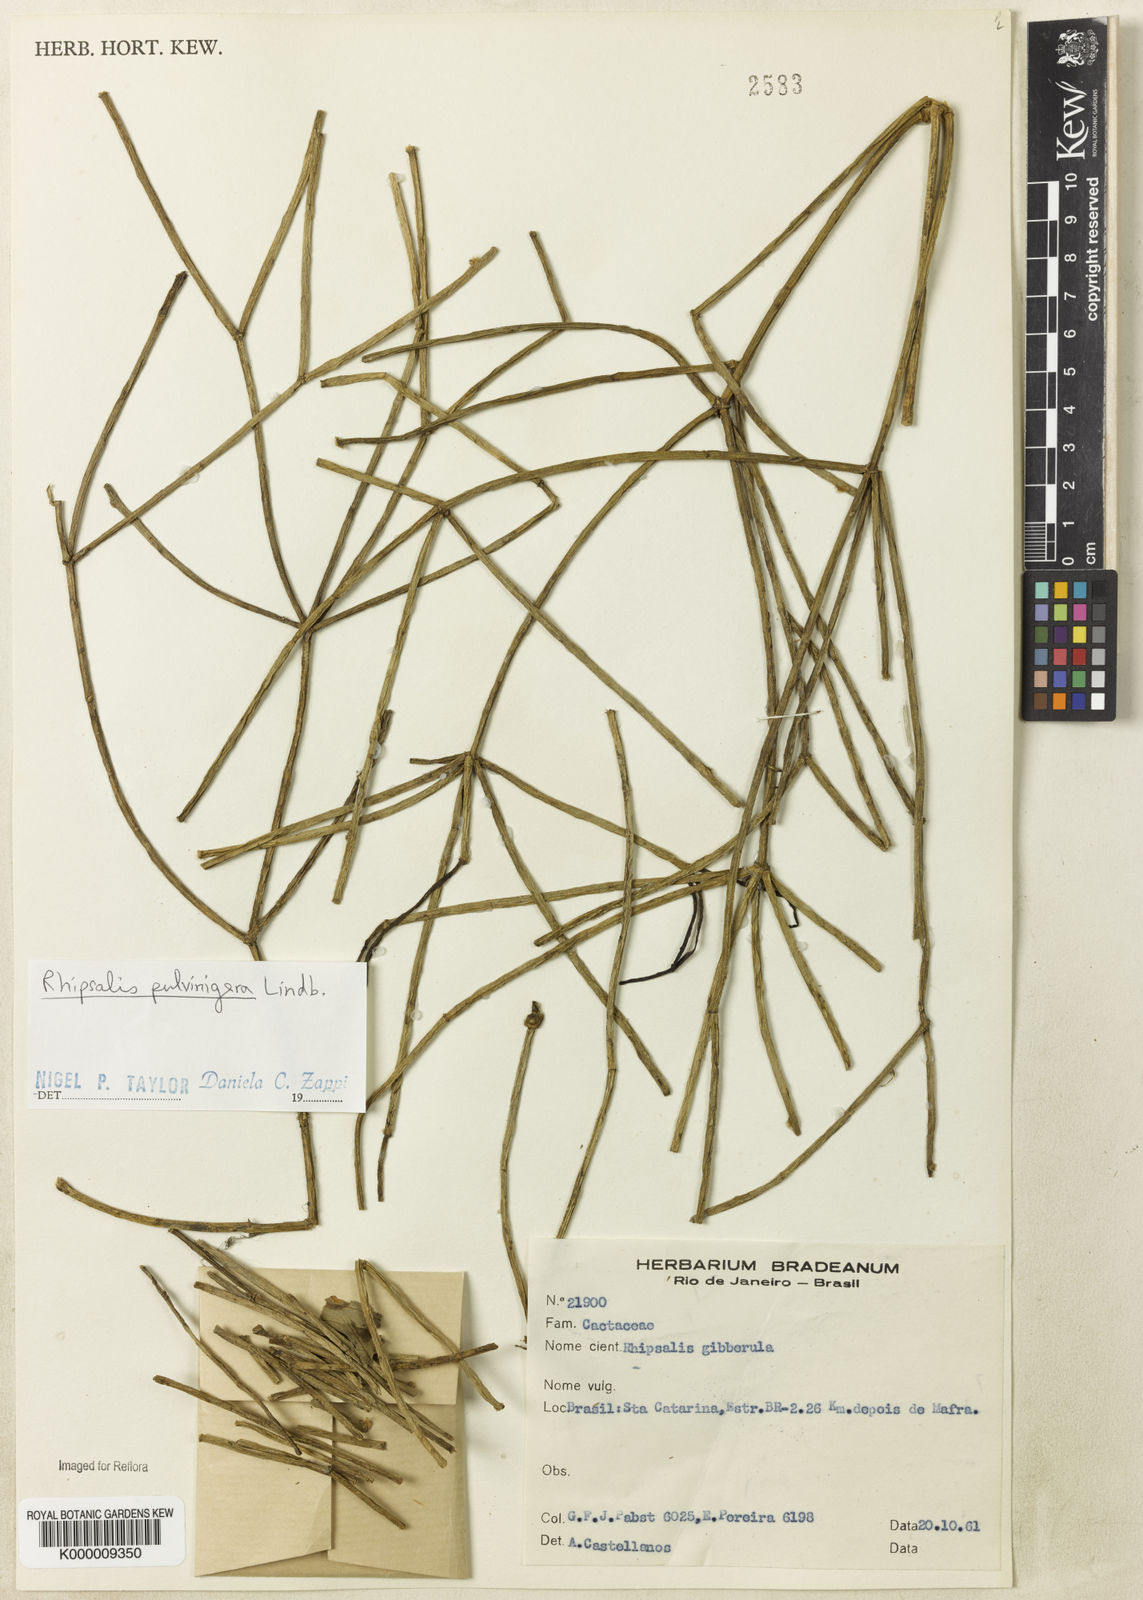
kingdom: Plantae
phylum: Tracheophyta
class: Magnoliopsida
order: Caryophyllales
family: Cactaceae
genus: Rhipsalis
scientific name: Rhipsalis floccosa
